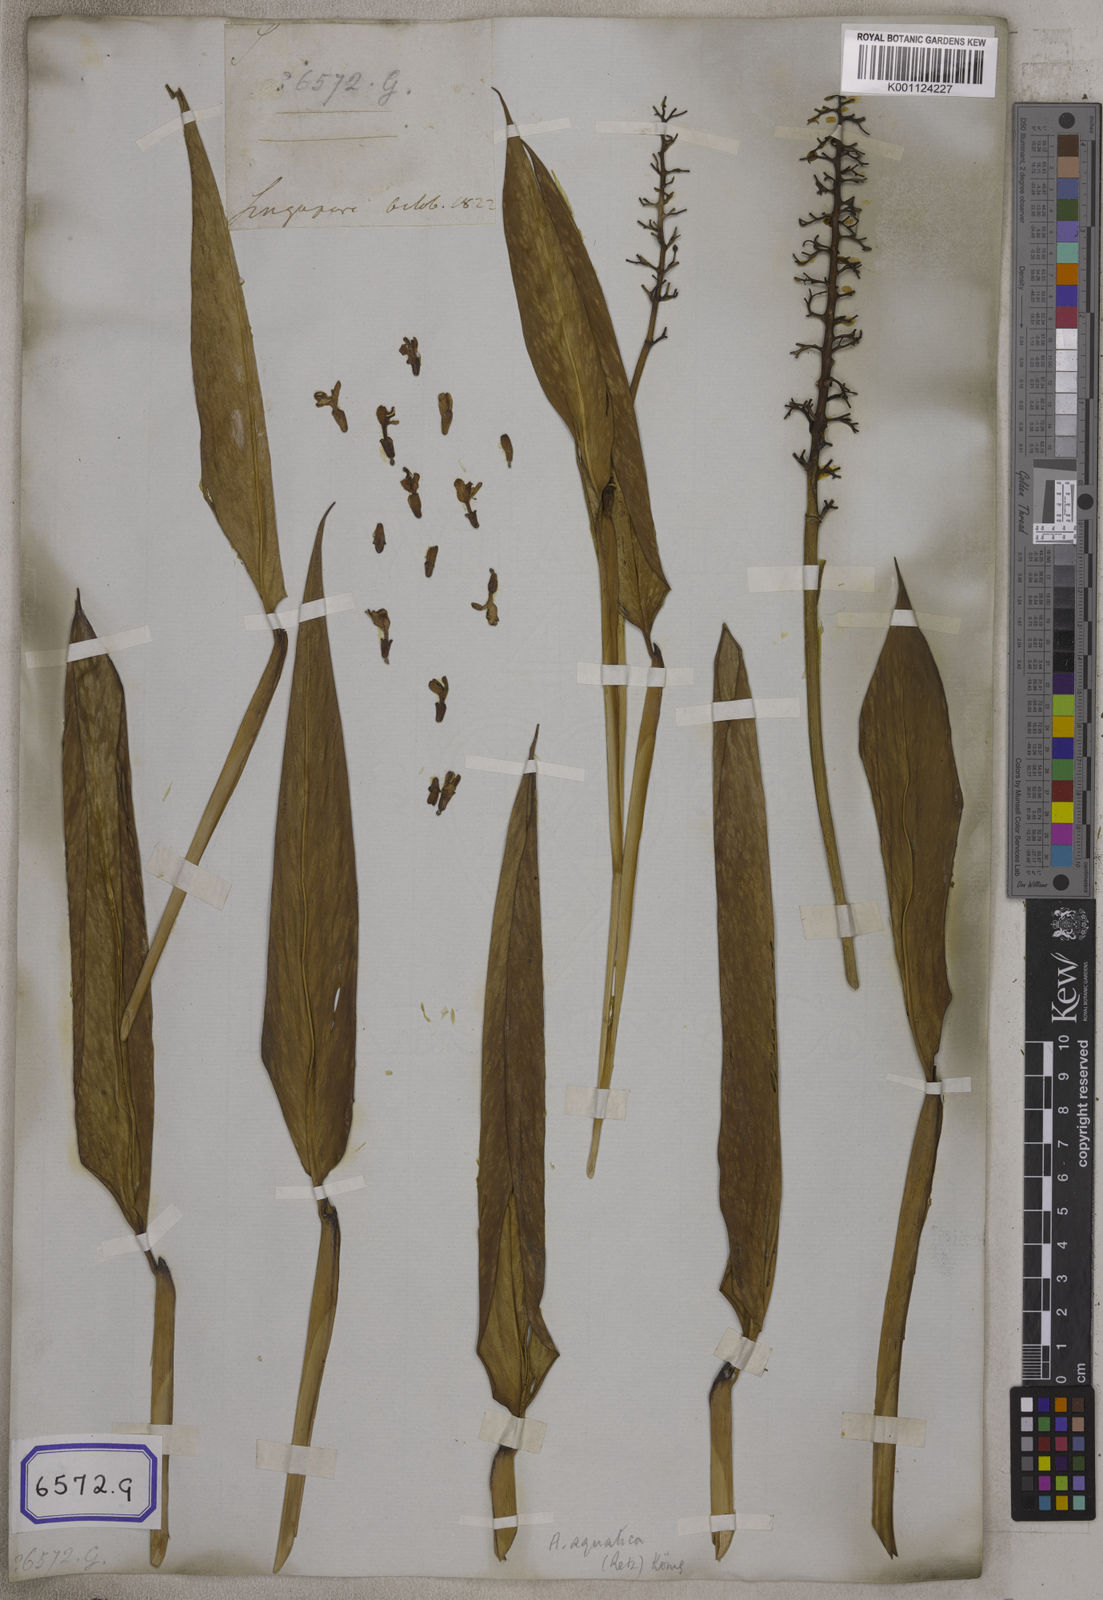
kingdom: Plantae
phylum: Tracheophyta
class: Liliopsida
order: Zingiberales
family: Zingiberaceae
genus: Alpinia
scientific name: Alpinia galanga
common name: Siamese-ginger
